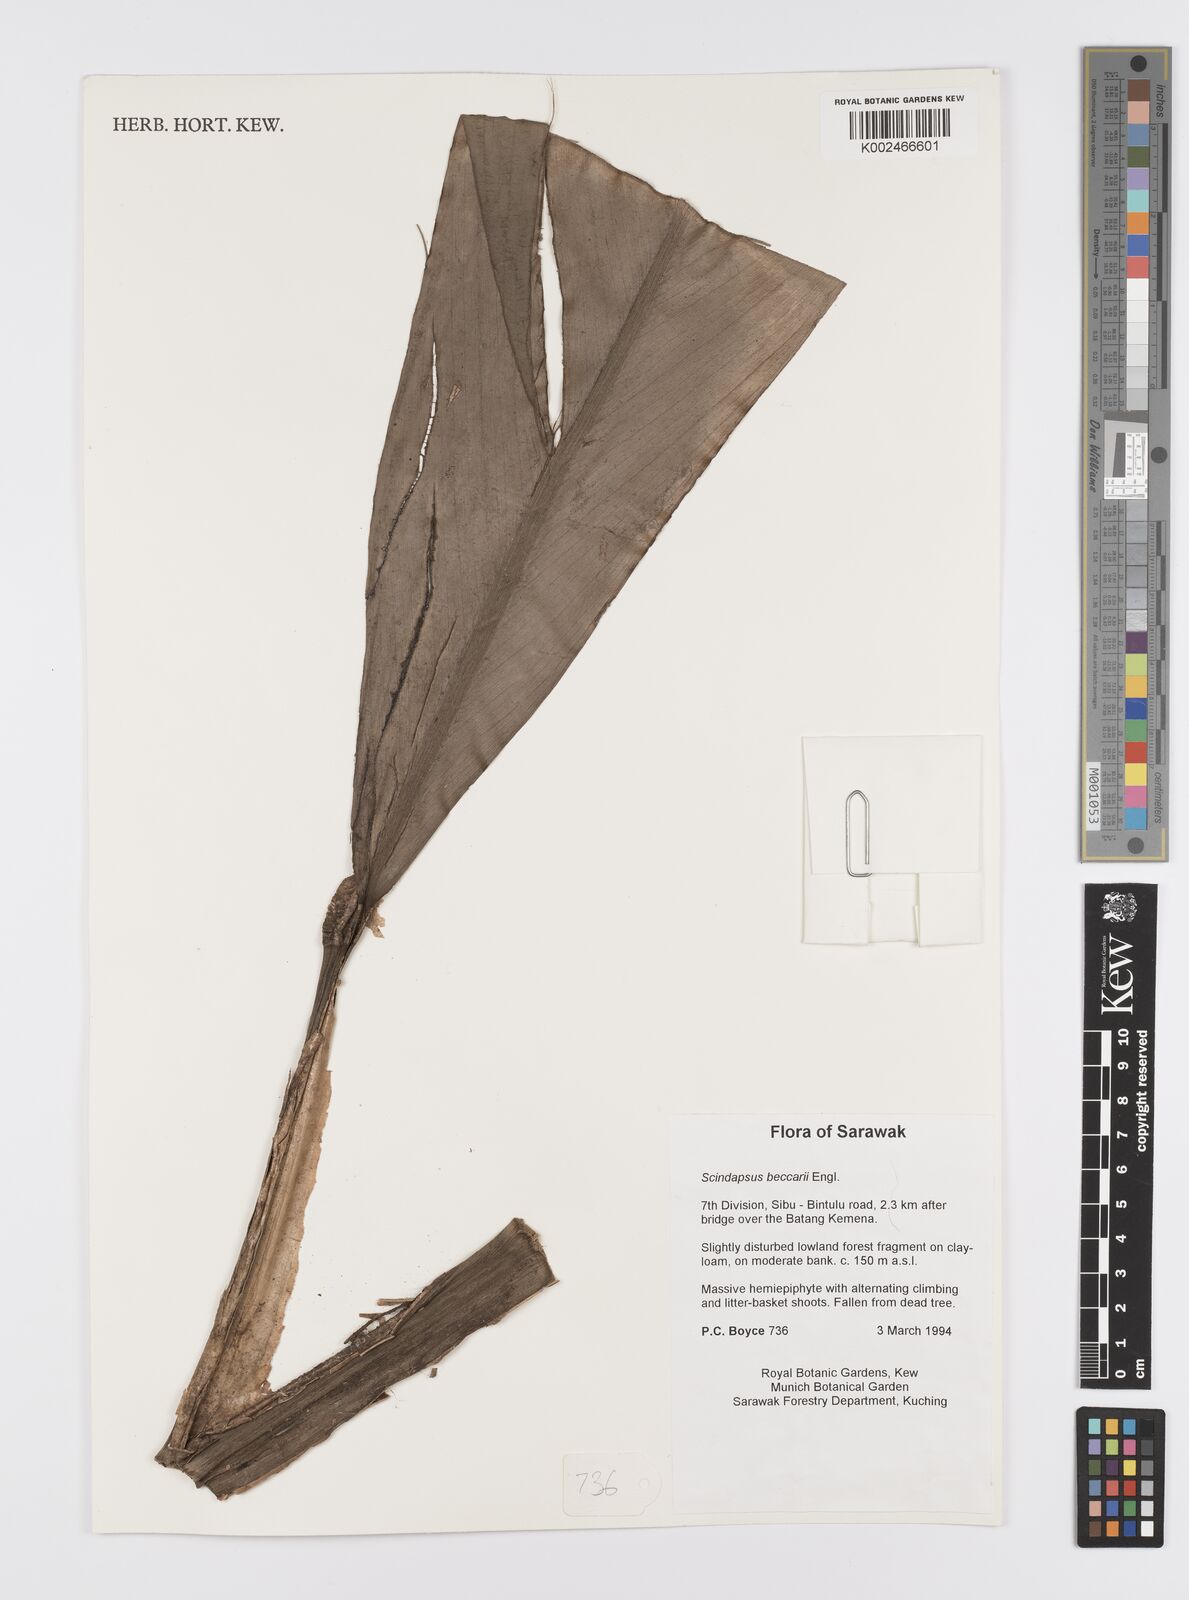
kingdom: Plantae
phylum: Tracheophyta
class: Liliopsida
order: Alismatales
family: Araceae
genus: Scindapsus
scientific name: Scindapsus beccarii
